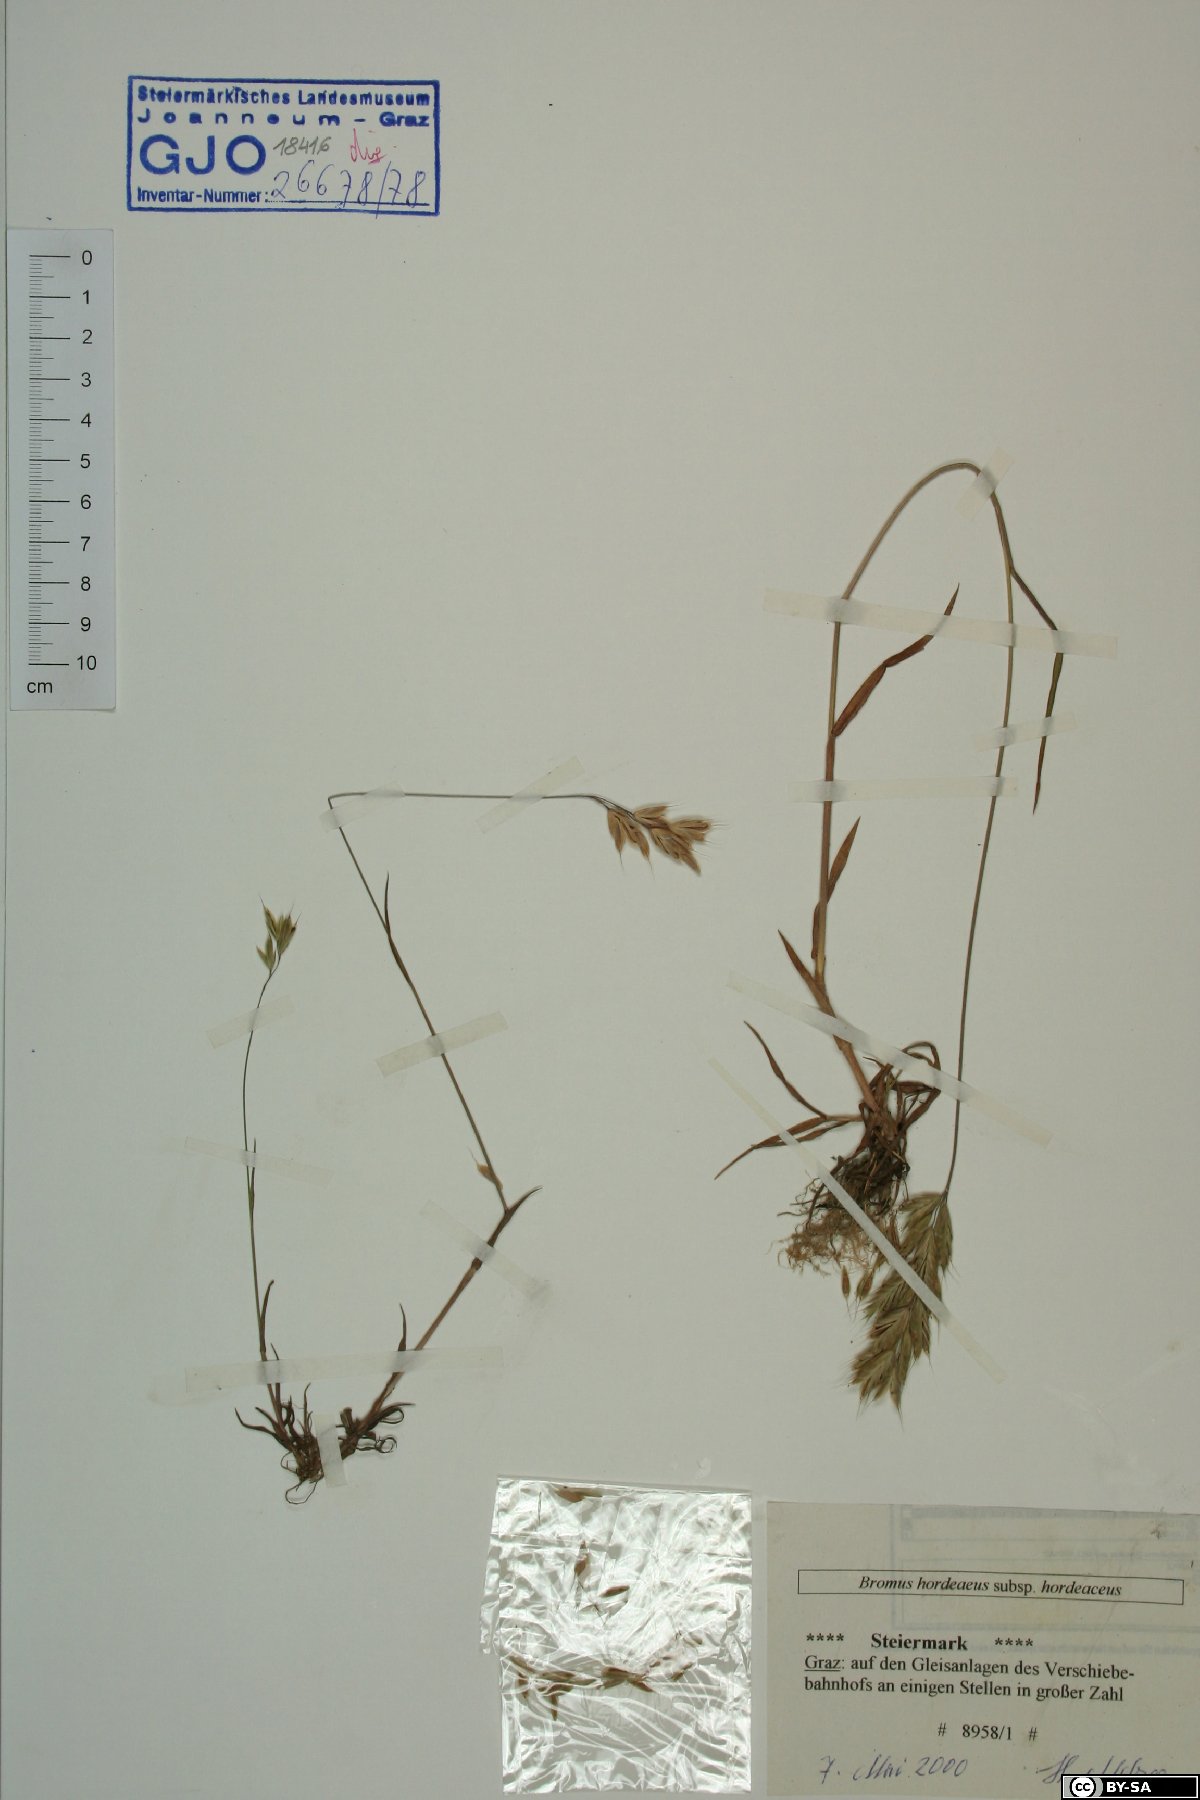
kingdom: Plantae
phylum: Tracheophyta
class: Liliopsida
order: Poales
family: Poaceae
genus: Bromus
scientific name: Bromus hordeaceus
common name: Soft brome
